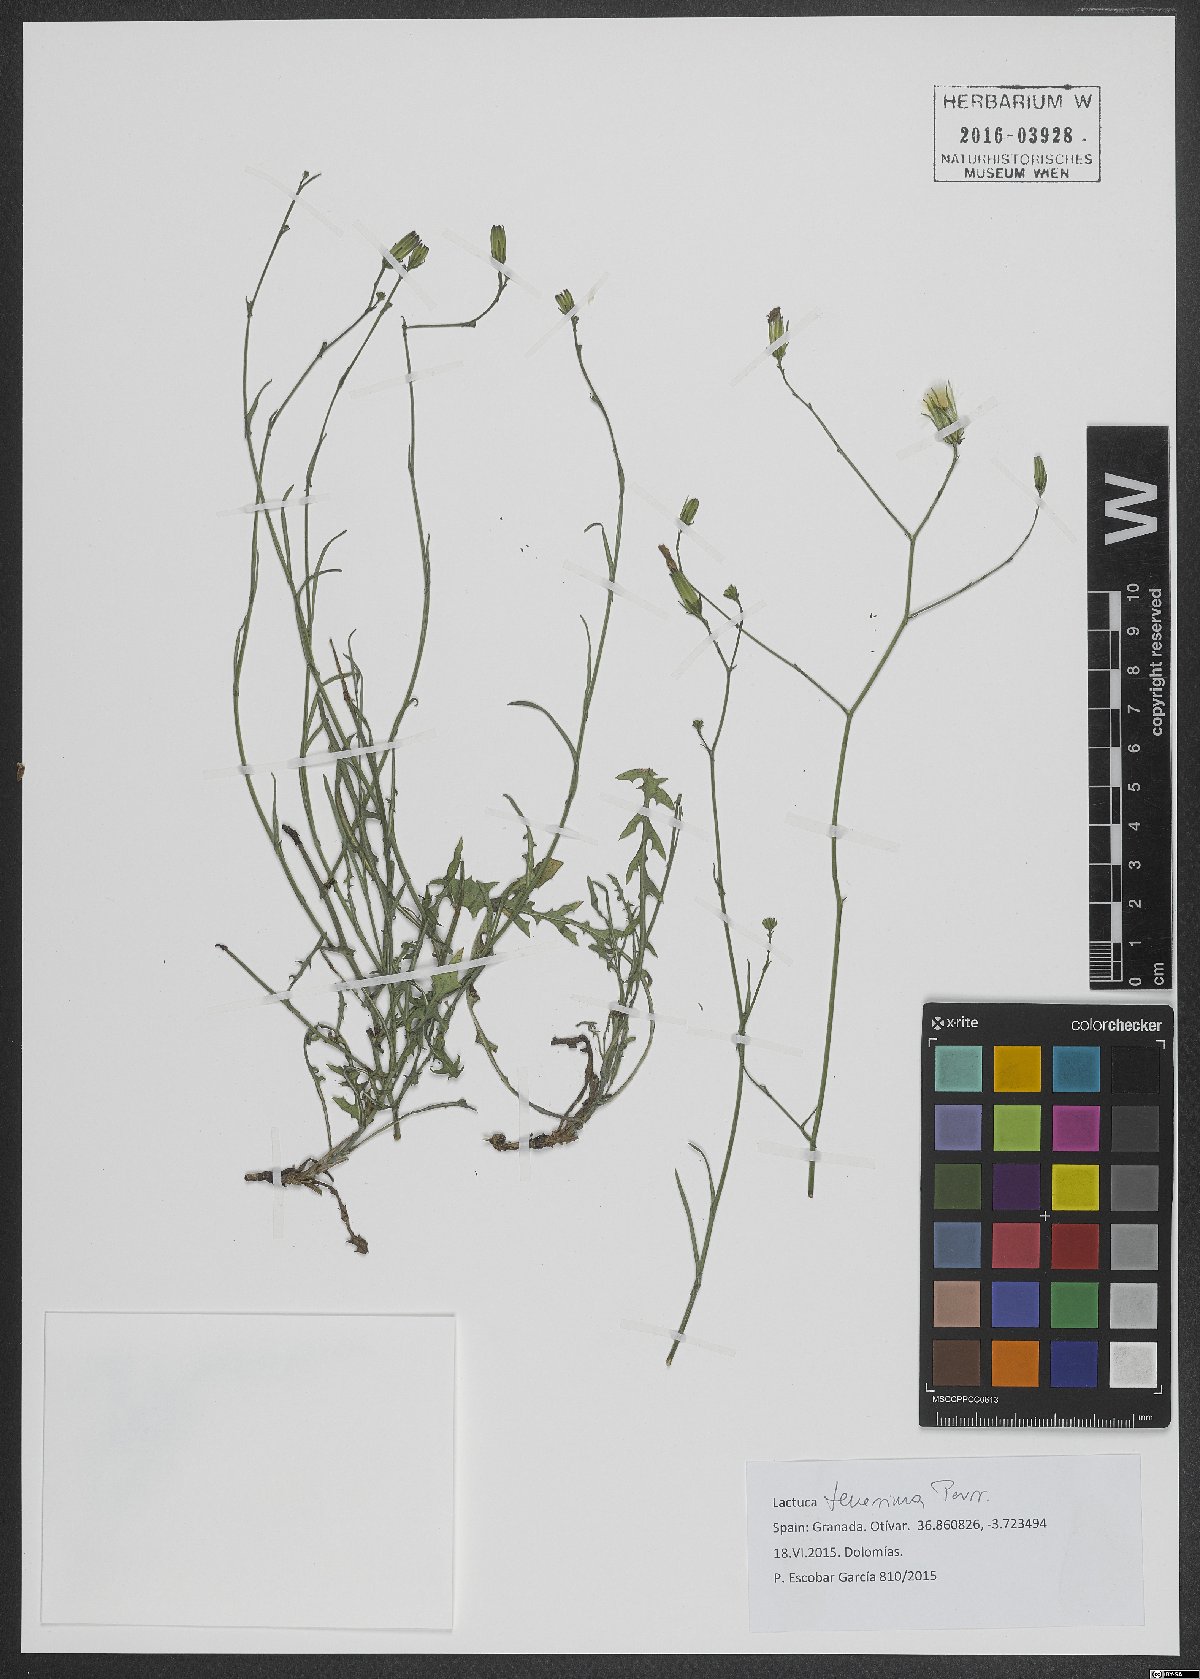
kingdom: Plantae
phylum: Tracheophyta
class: Magnoliopsida
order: Asterales
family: Asteraceae
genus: Lactuca
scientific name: Lactuca tenerrima
